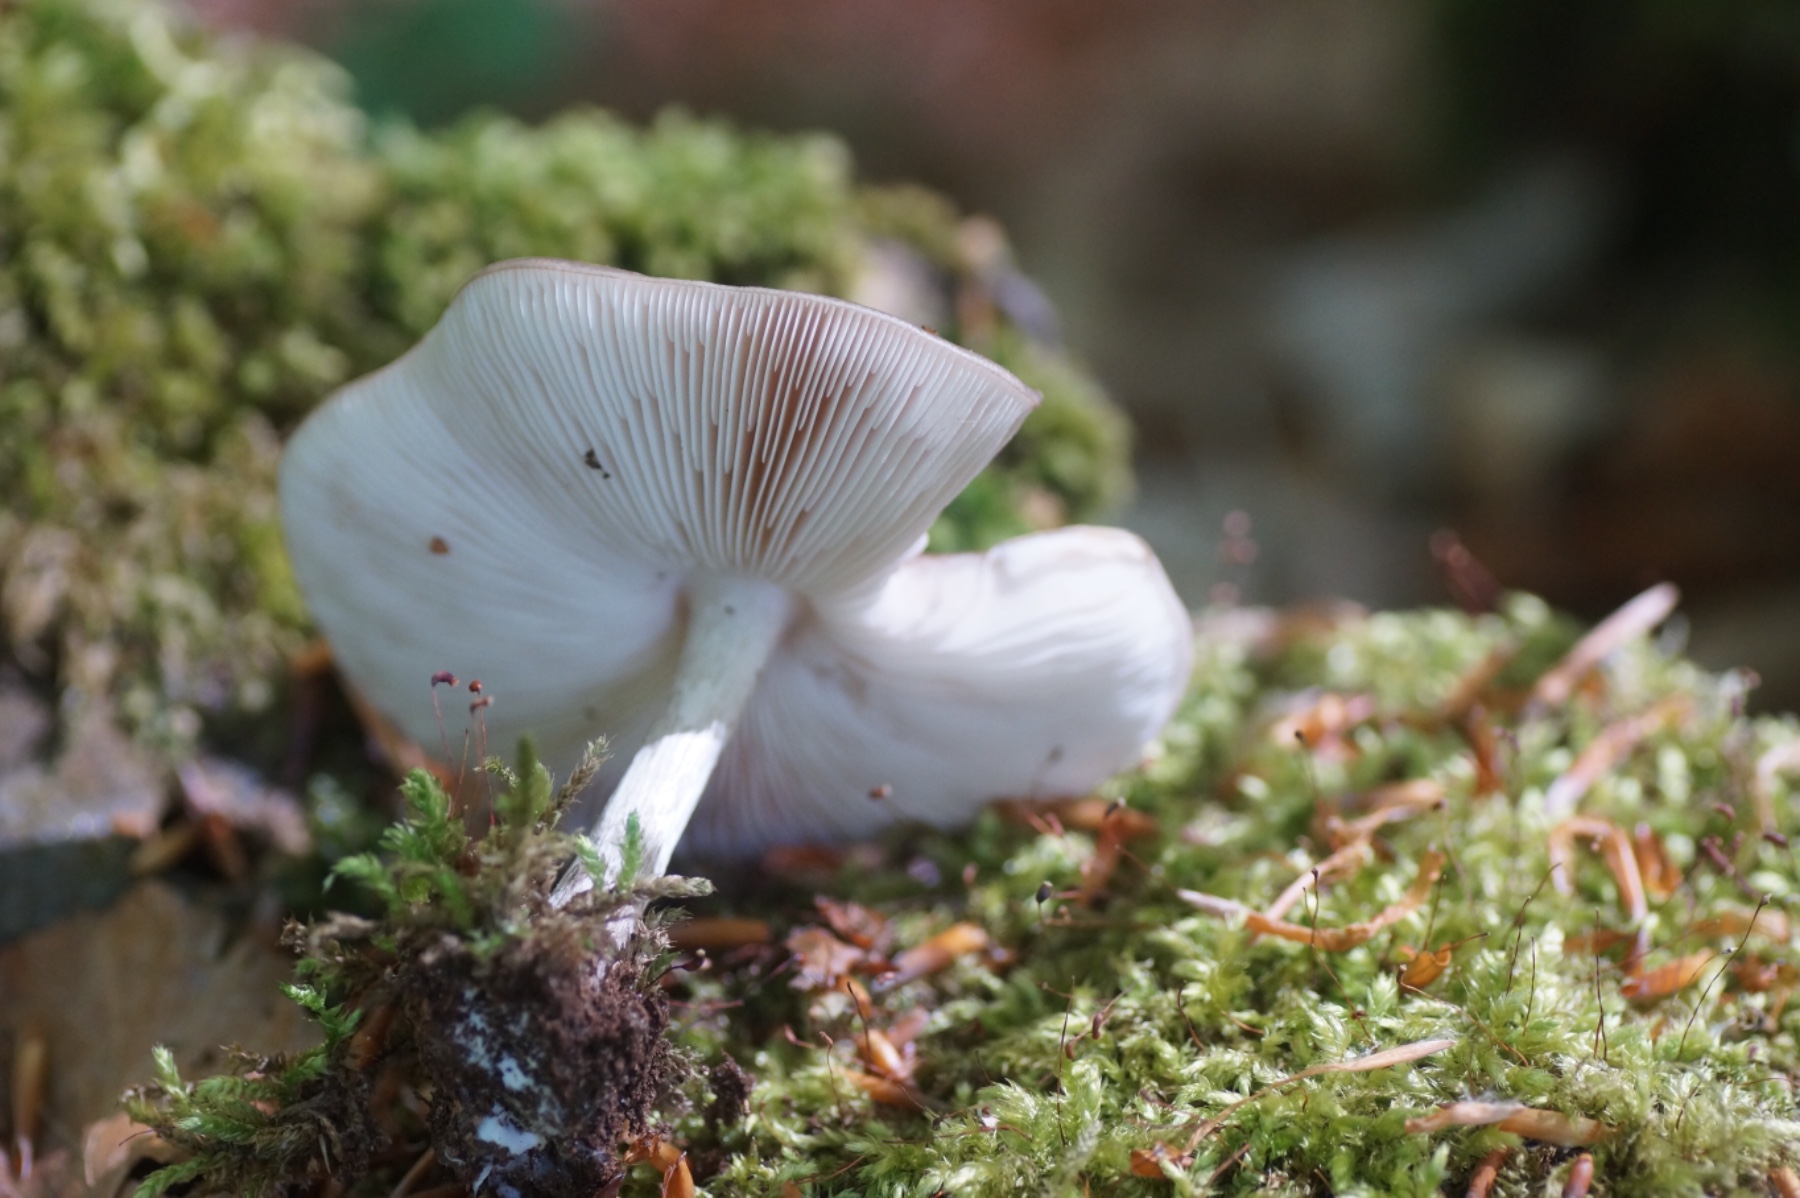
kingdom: Fungi
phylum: Basidiomycota
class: Agaricomycetes
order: Agaricales
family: Pluteaceae
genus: Pluteus
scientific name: Pluteus cervinus
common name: sodfarvet skærmhat
